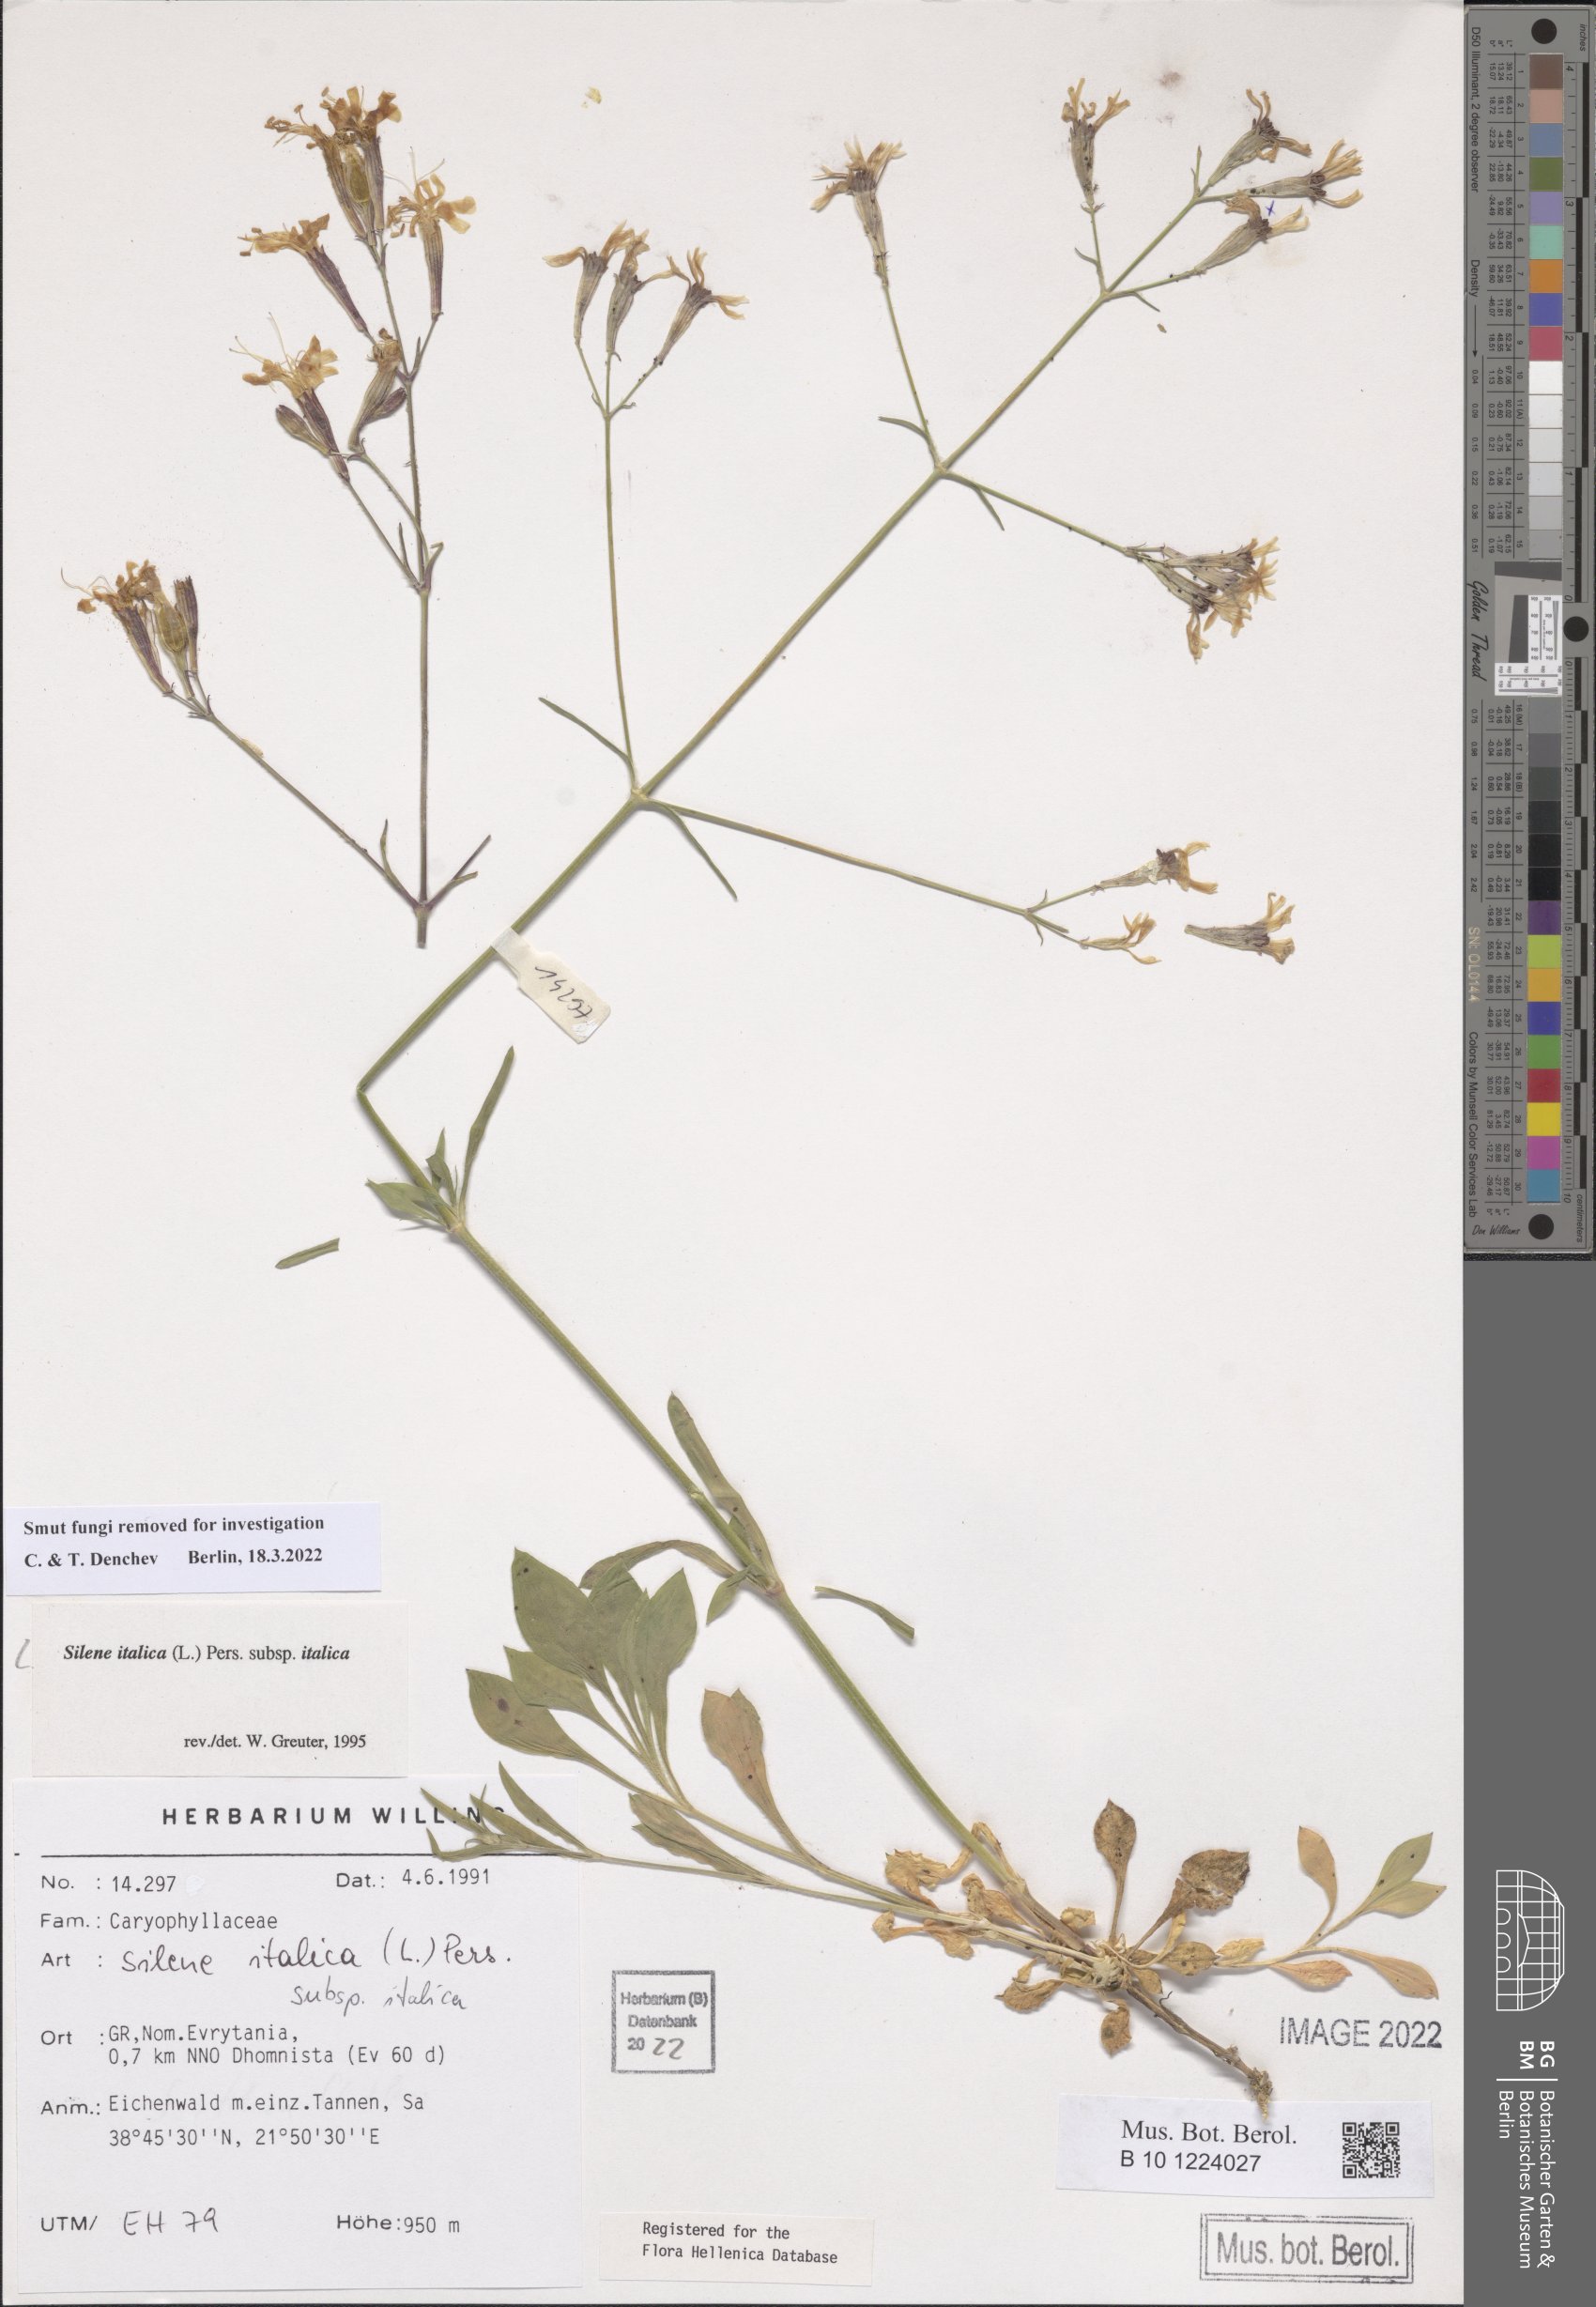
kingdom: Plantae
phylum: Tracheophyta
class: Magnoliopsida
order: Caryophyllales
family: Caryophyllaceae
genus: Silene
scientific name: Silene italica
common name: Italian catchfly
